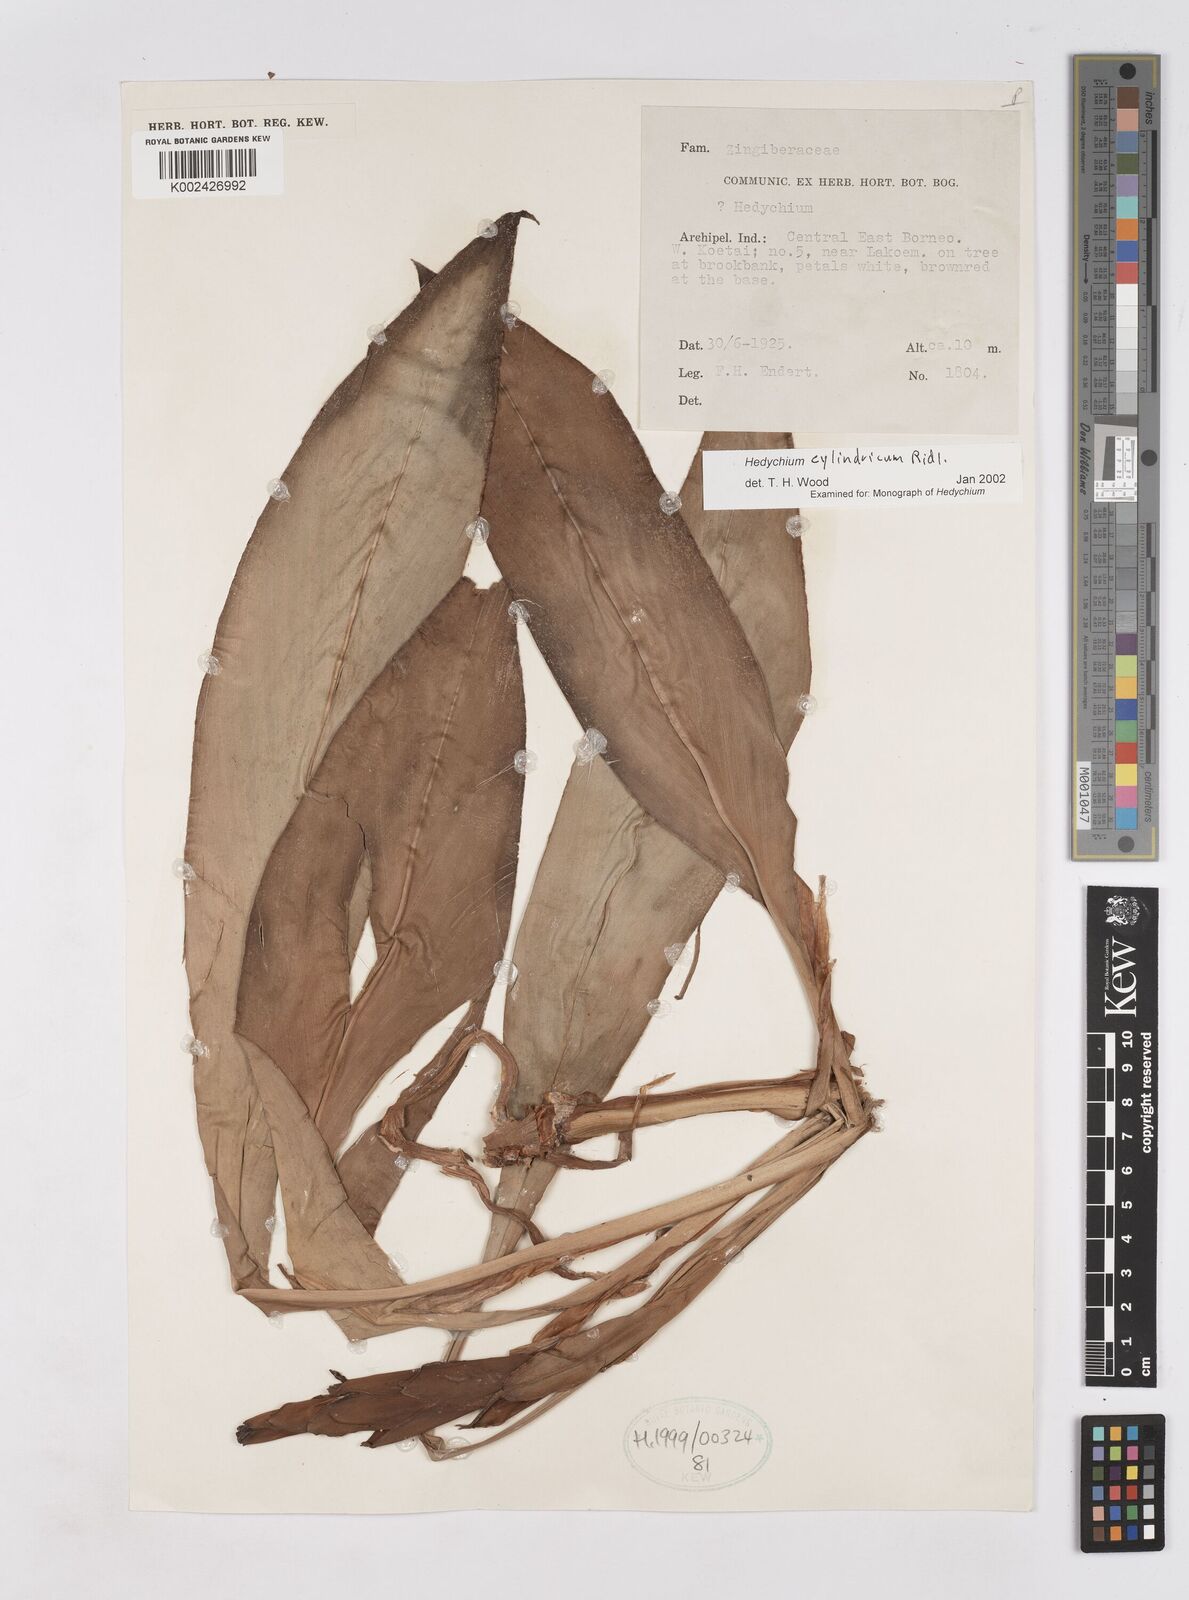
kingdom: Plantae
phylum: Tracheophyta
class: Liliopsida
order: Zingiberales
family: Zingiberaceae
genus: Hedychium
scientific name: Hedychium cylindricum
